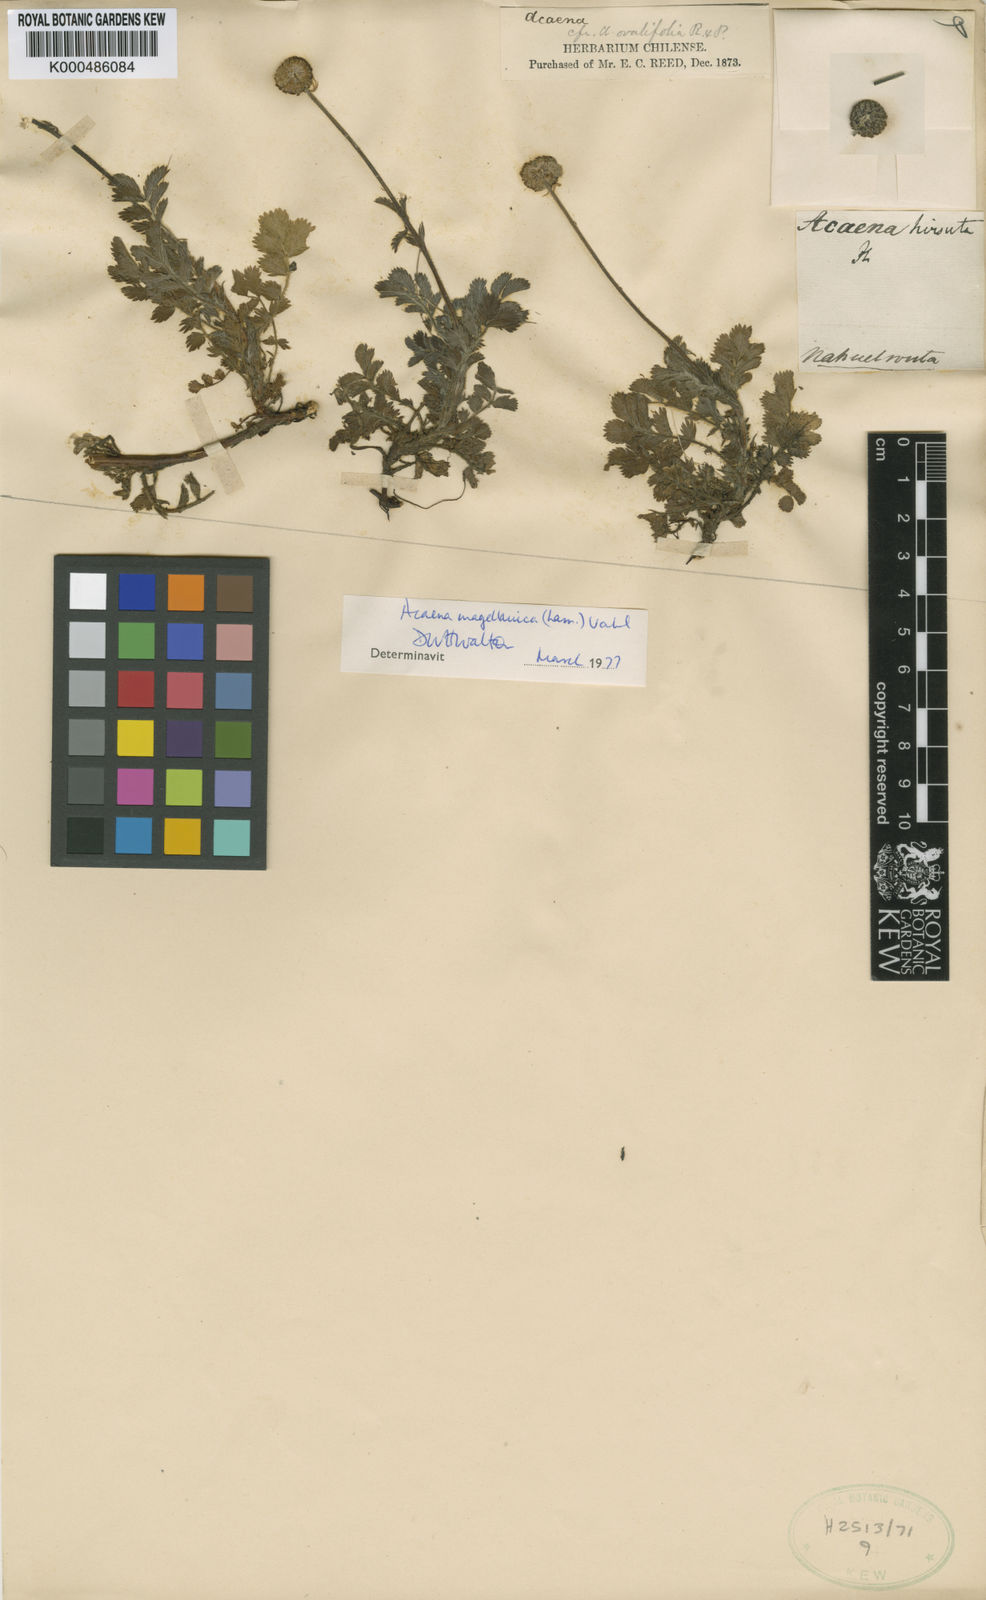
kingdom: Plantae
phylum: Tracheophyta
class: Magnoliopsida
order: Rosales
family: Rosaceae
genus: Acaena
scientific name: Acaena magellanica
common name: New zealand burr
